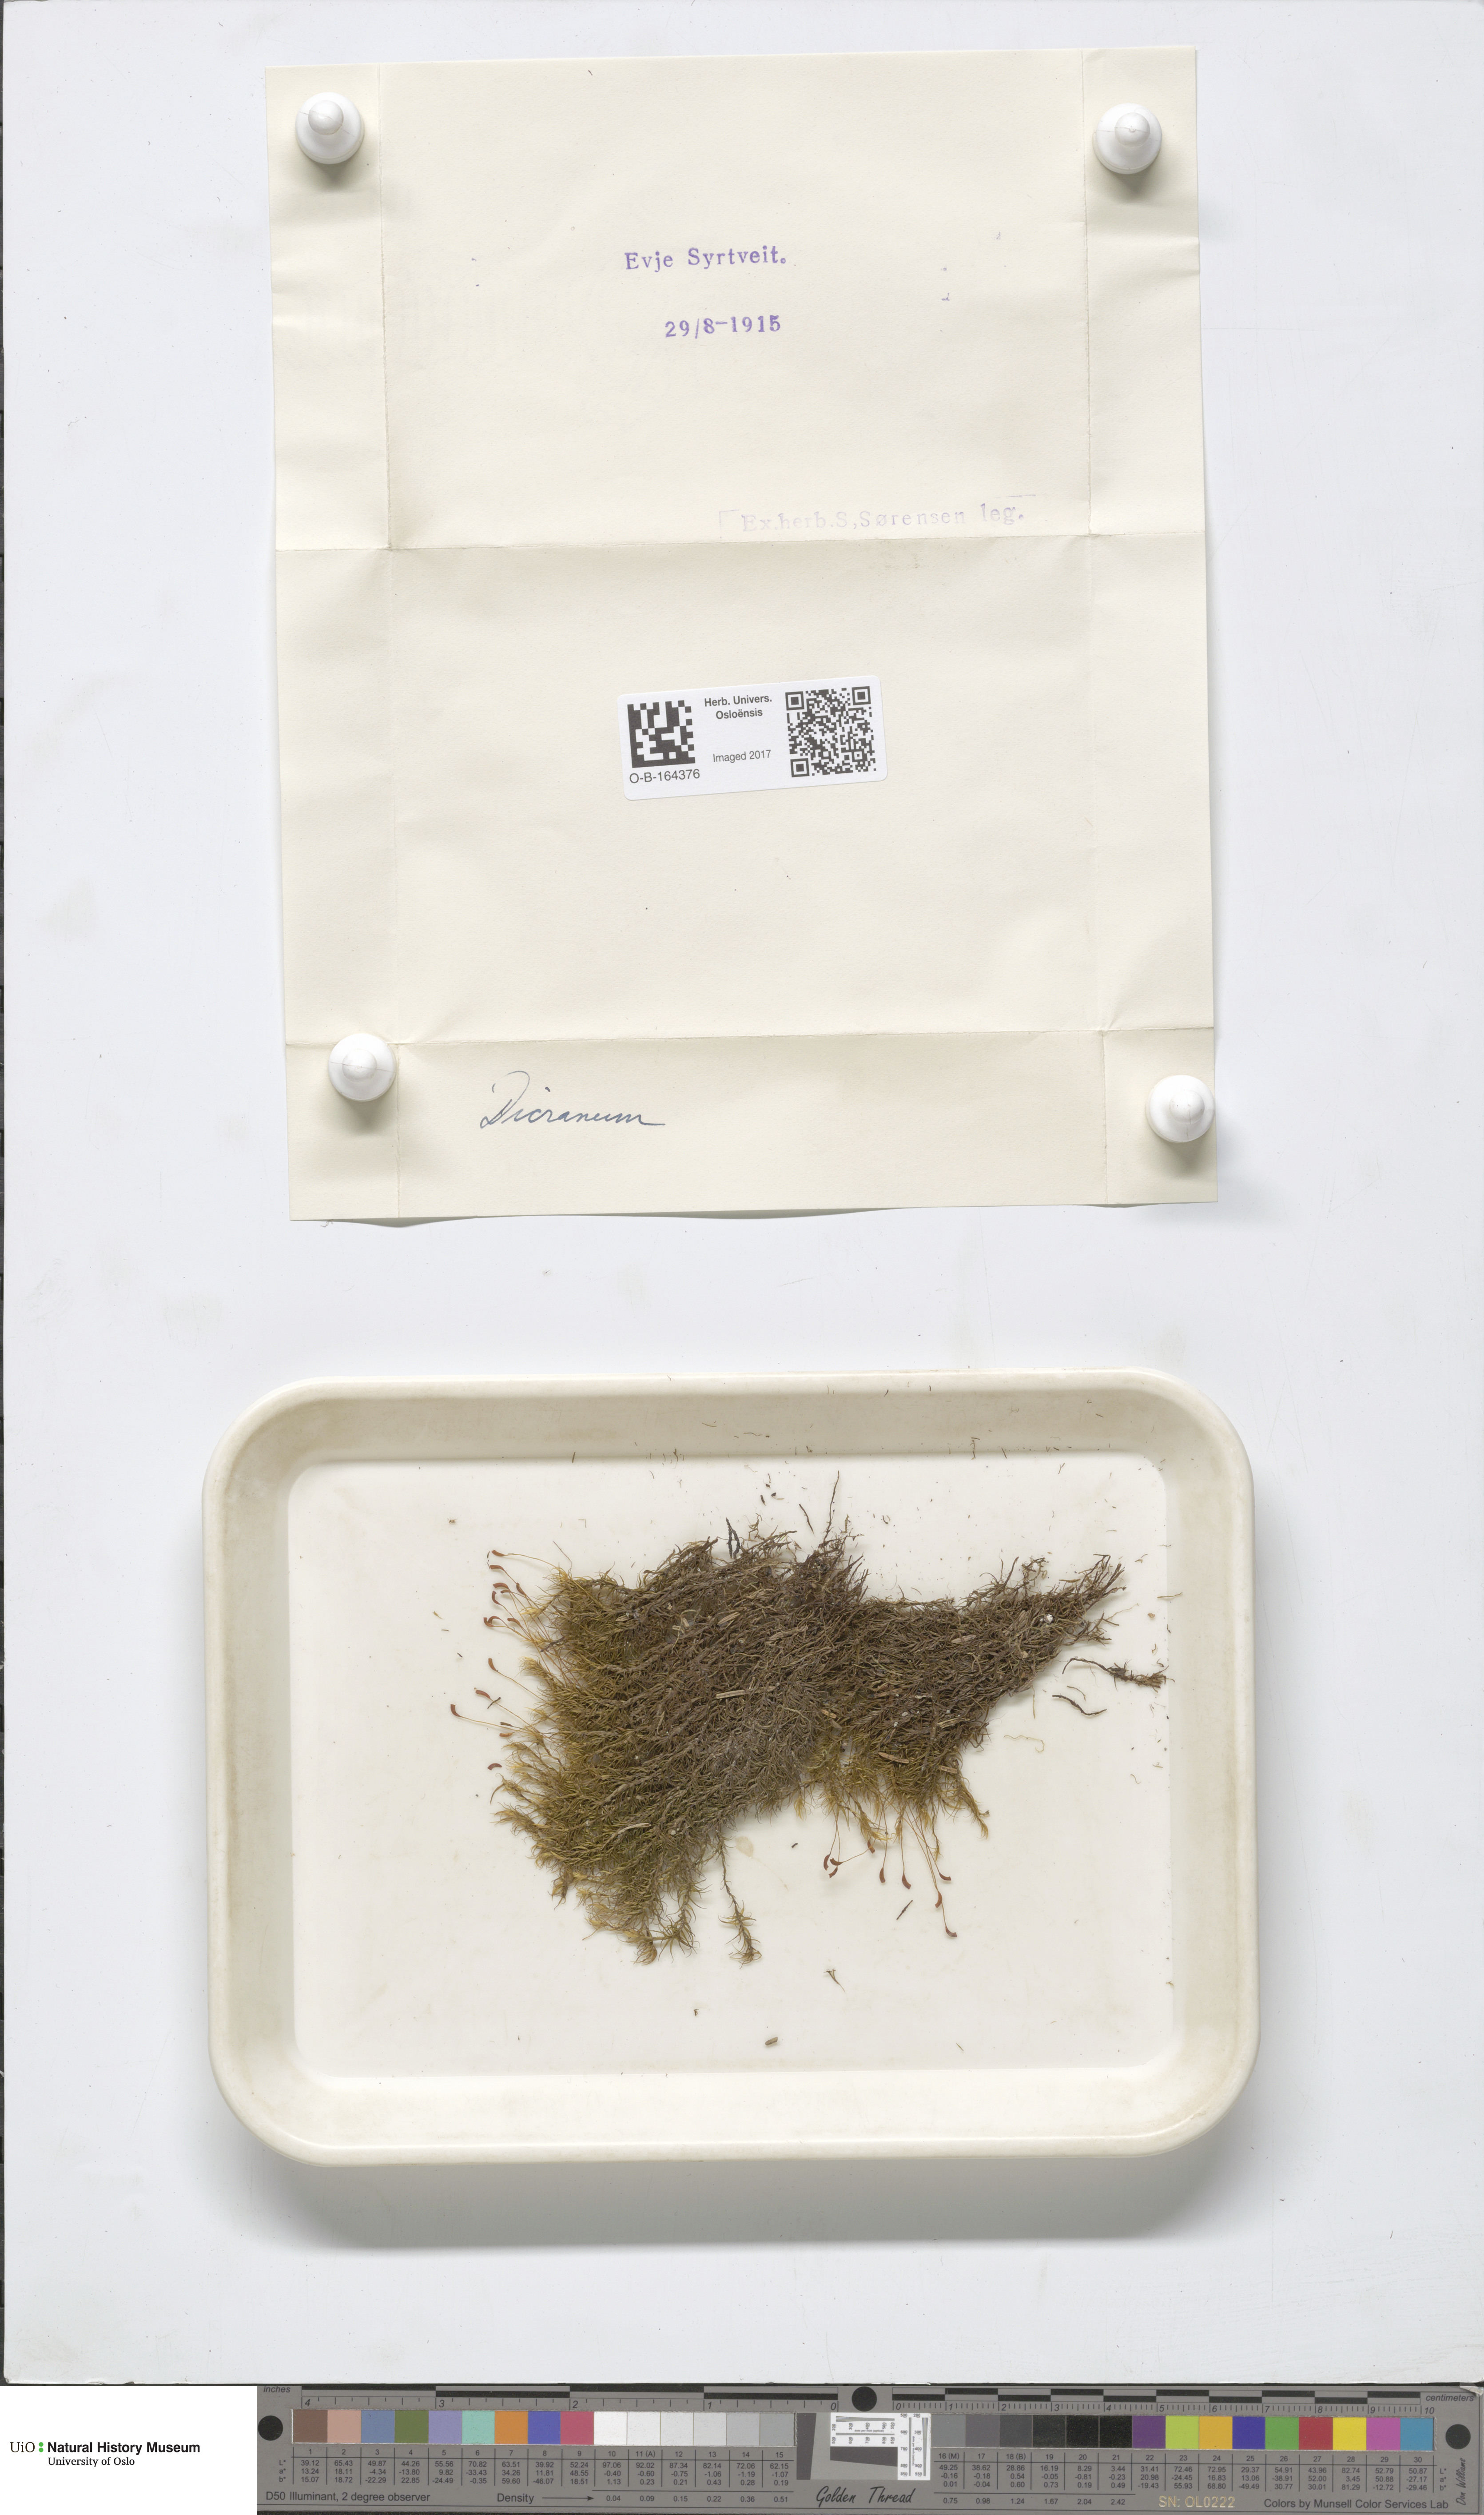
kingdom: Plantae
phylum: Bryophyta
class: Bryopsida
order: Dicranales
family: Dicranaceae
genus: Dicranum
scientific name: Dicranum
